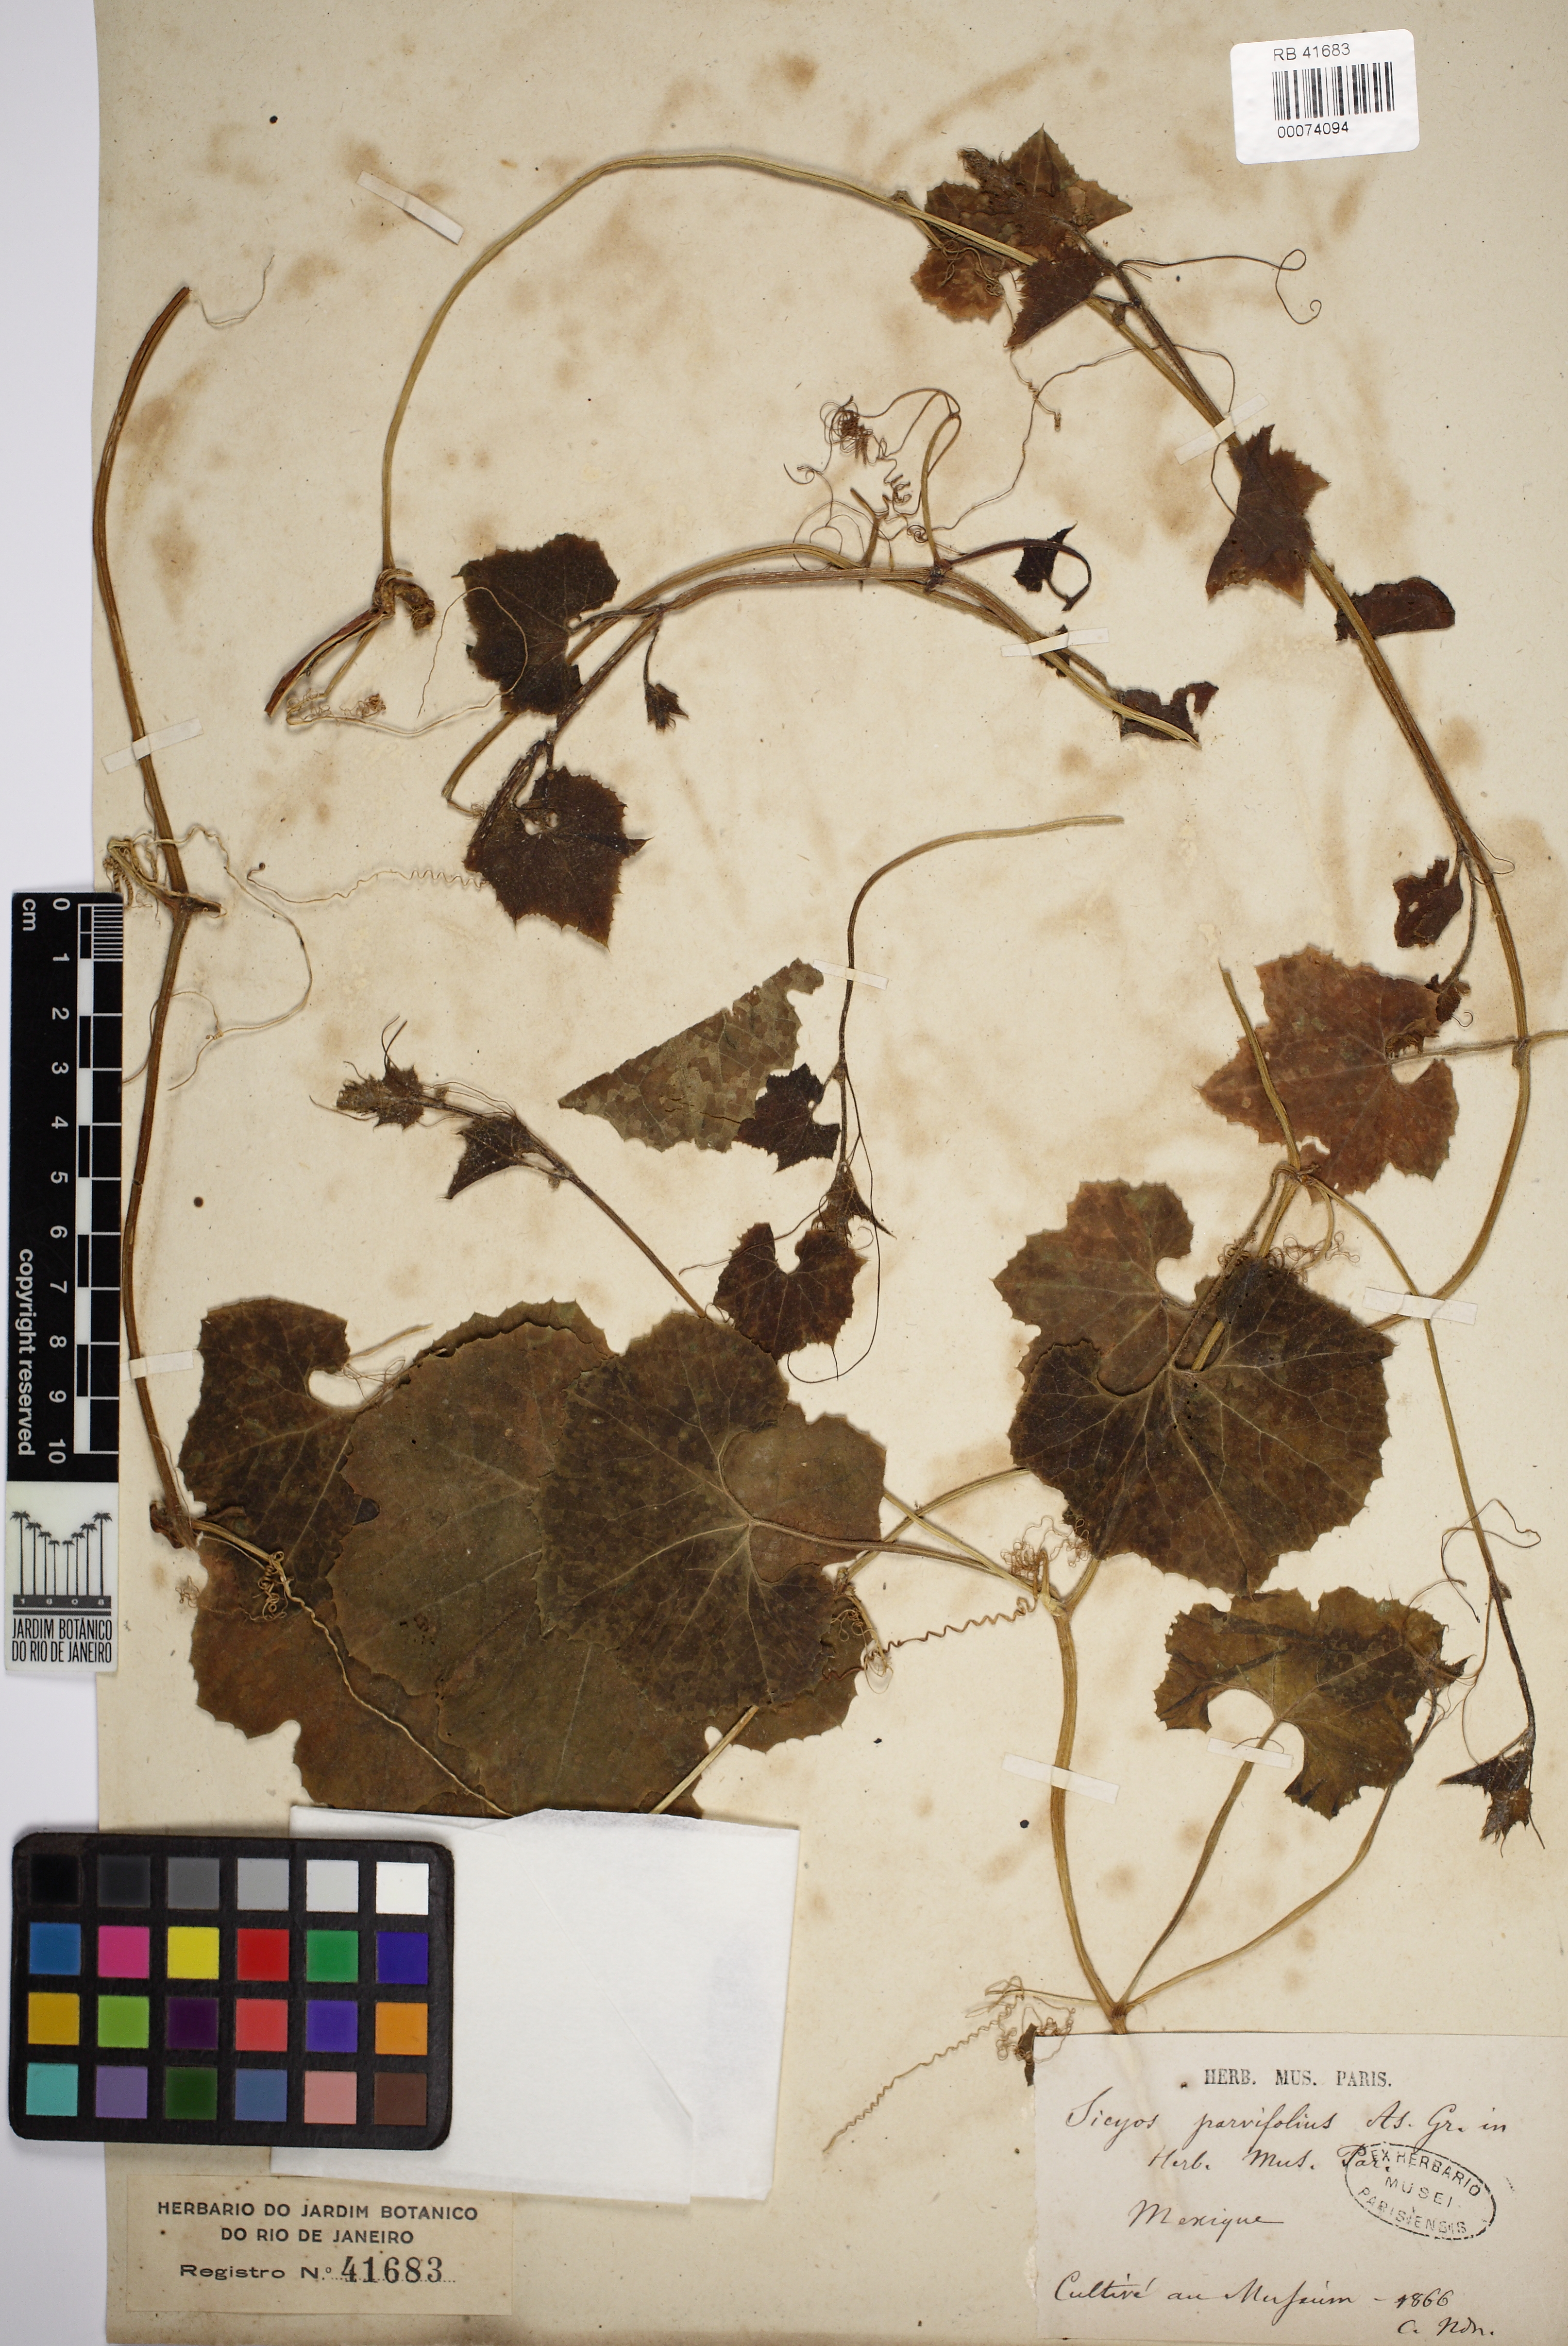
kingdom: Plantae
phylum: Tracheophyta
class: Magnoliopsida
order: Cucurbitales
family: Cucurbitaceae
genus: Sicyos
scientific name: Sicyos laciniatus
